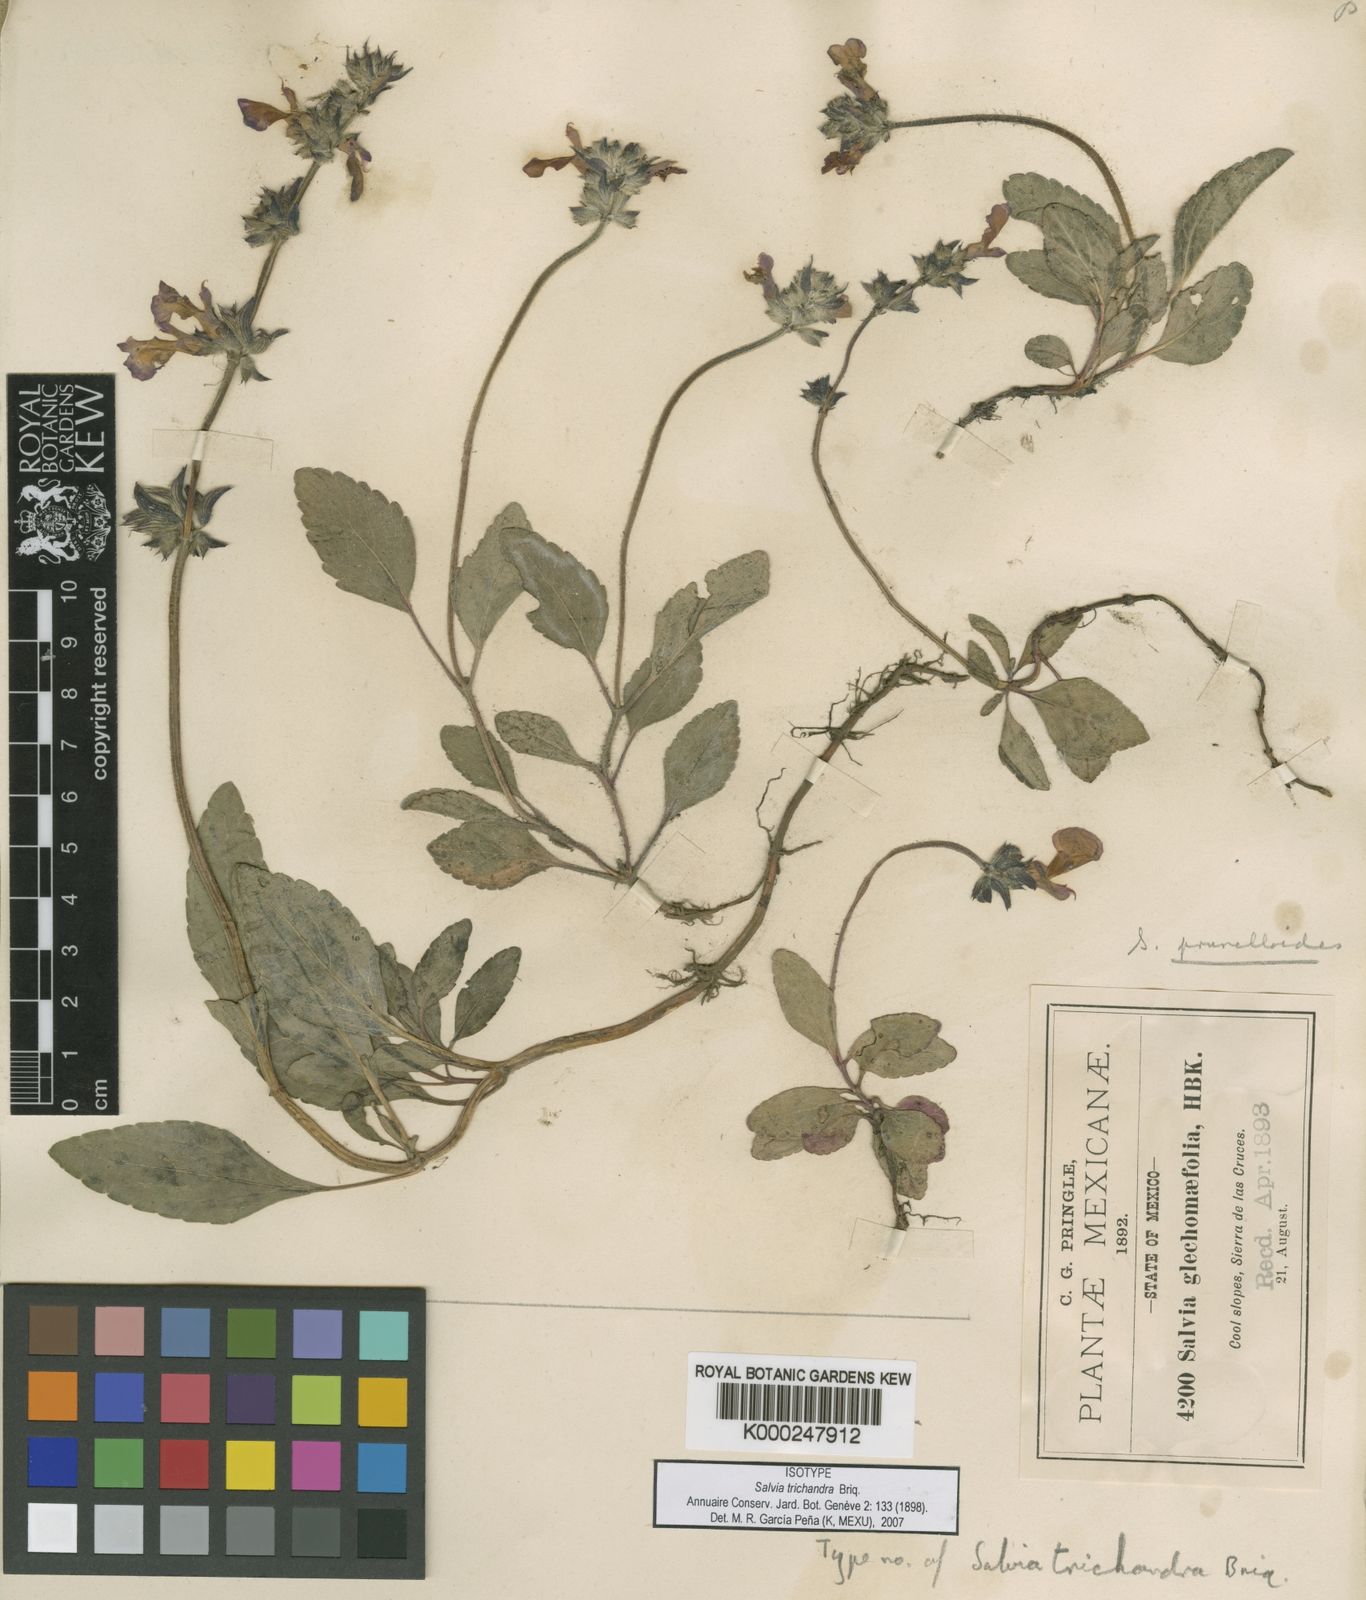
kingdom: Plantae
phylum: Tracheophyta
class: Magnoliopsida
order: Lamiales
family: Lamiaceae
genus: Salvia
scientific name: Salvia prunelloides
